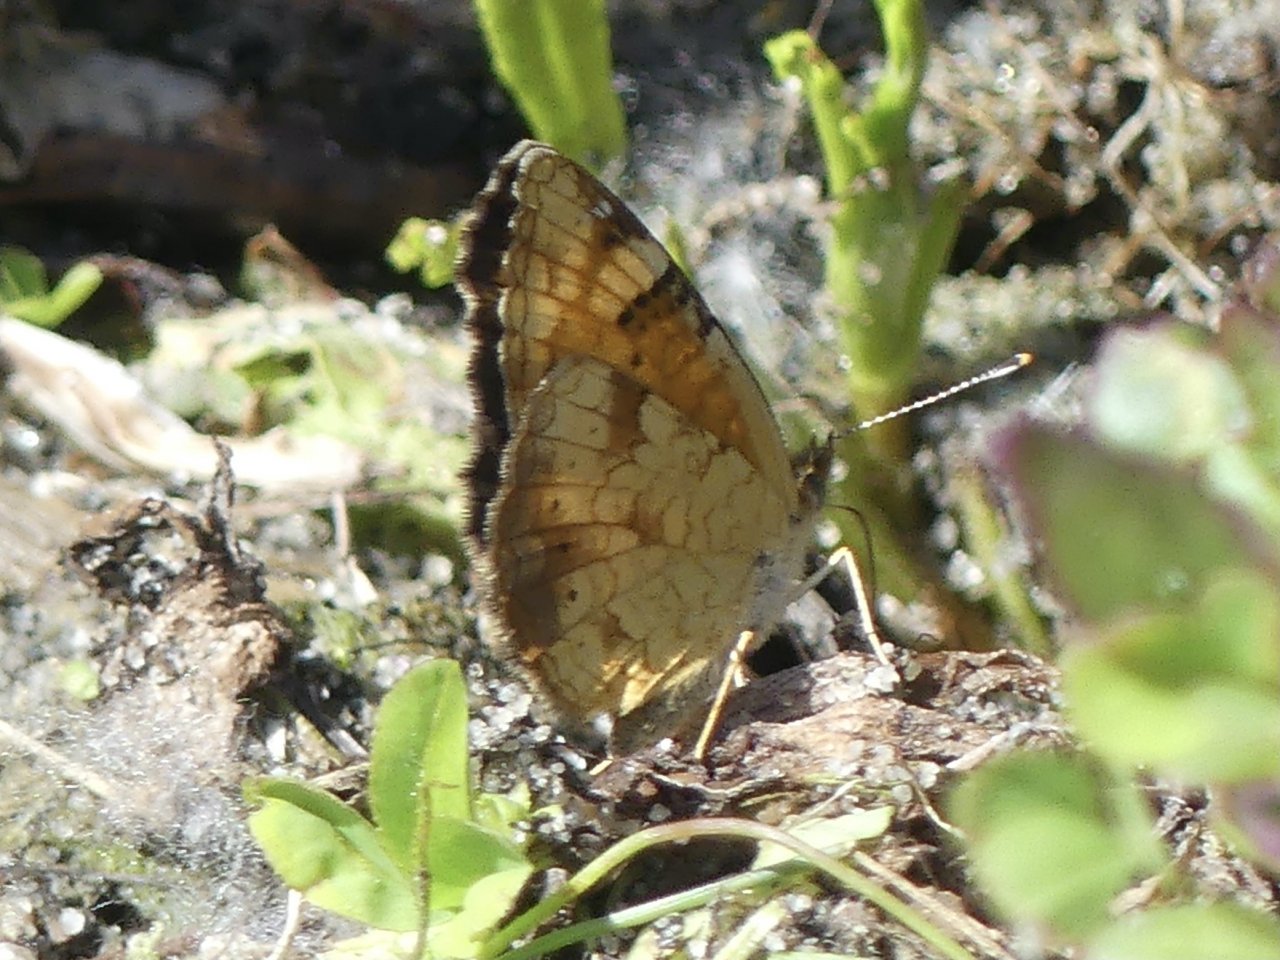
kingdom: Animalia
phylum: Arthropoda
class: Insecta
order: Lepidoptera
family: Nymphalidae
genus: Phyciodes
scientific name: Phyciodes tharos
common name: Northern Crescent
